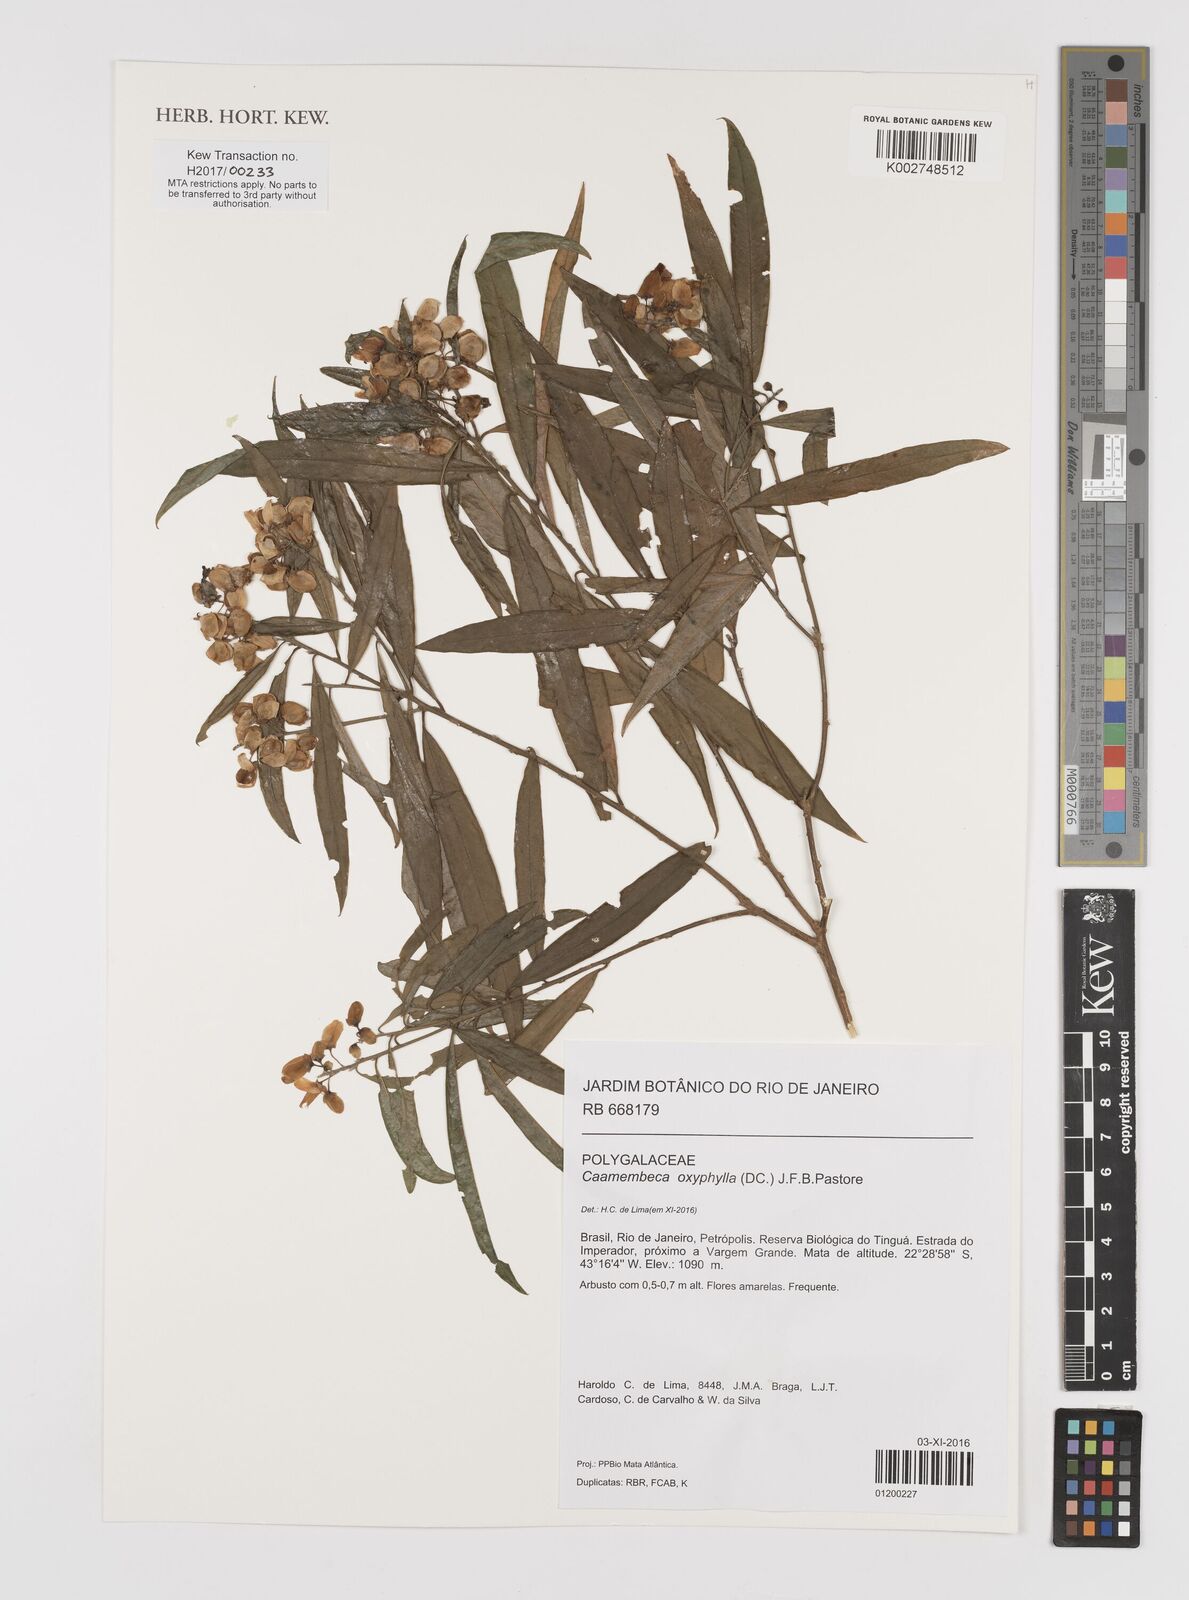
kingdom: Plantae
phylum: Tracheophyta
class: Magnoliopsida
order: Fabales
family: Polygalaceae
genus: Caamembeca
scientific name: Caamembeca oxyphylla
